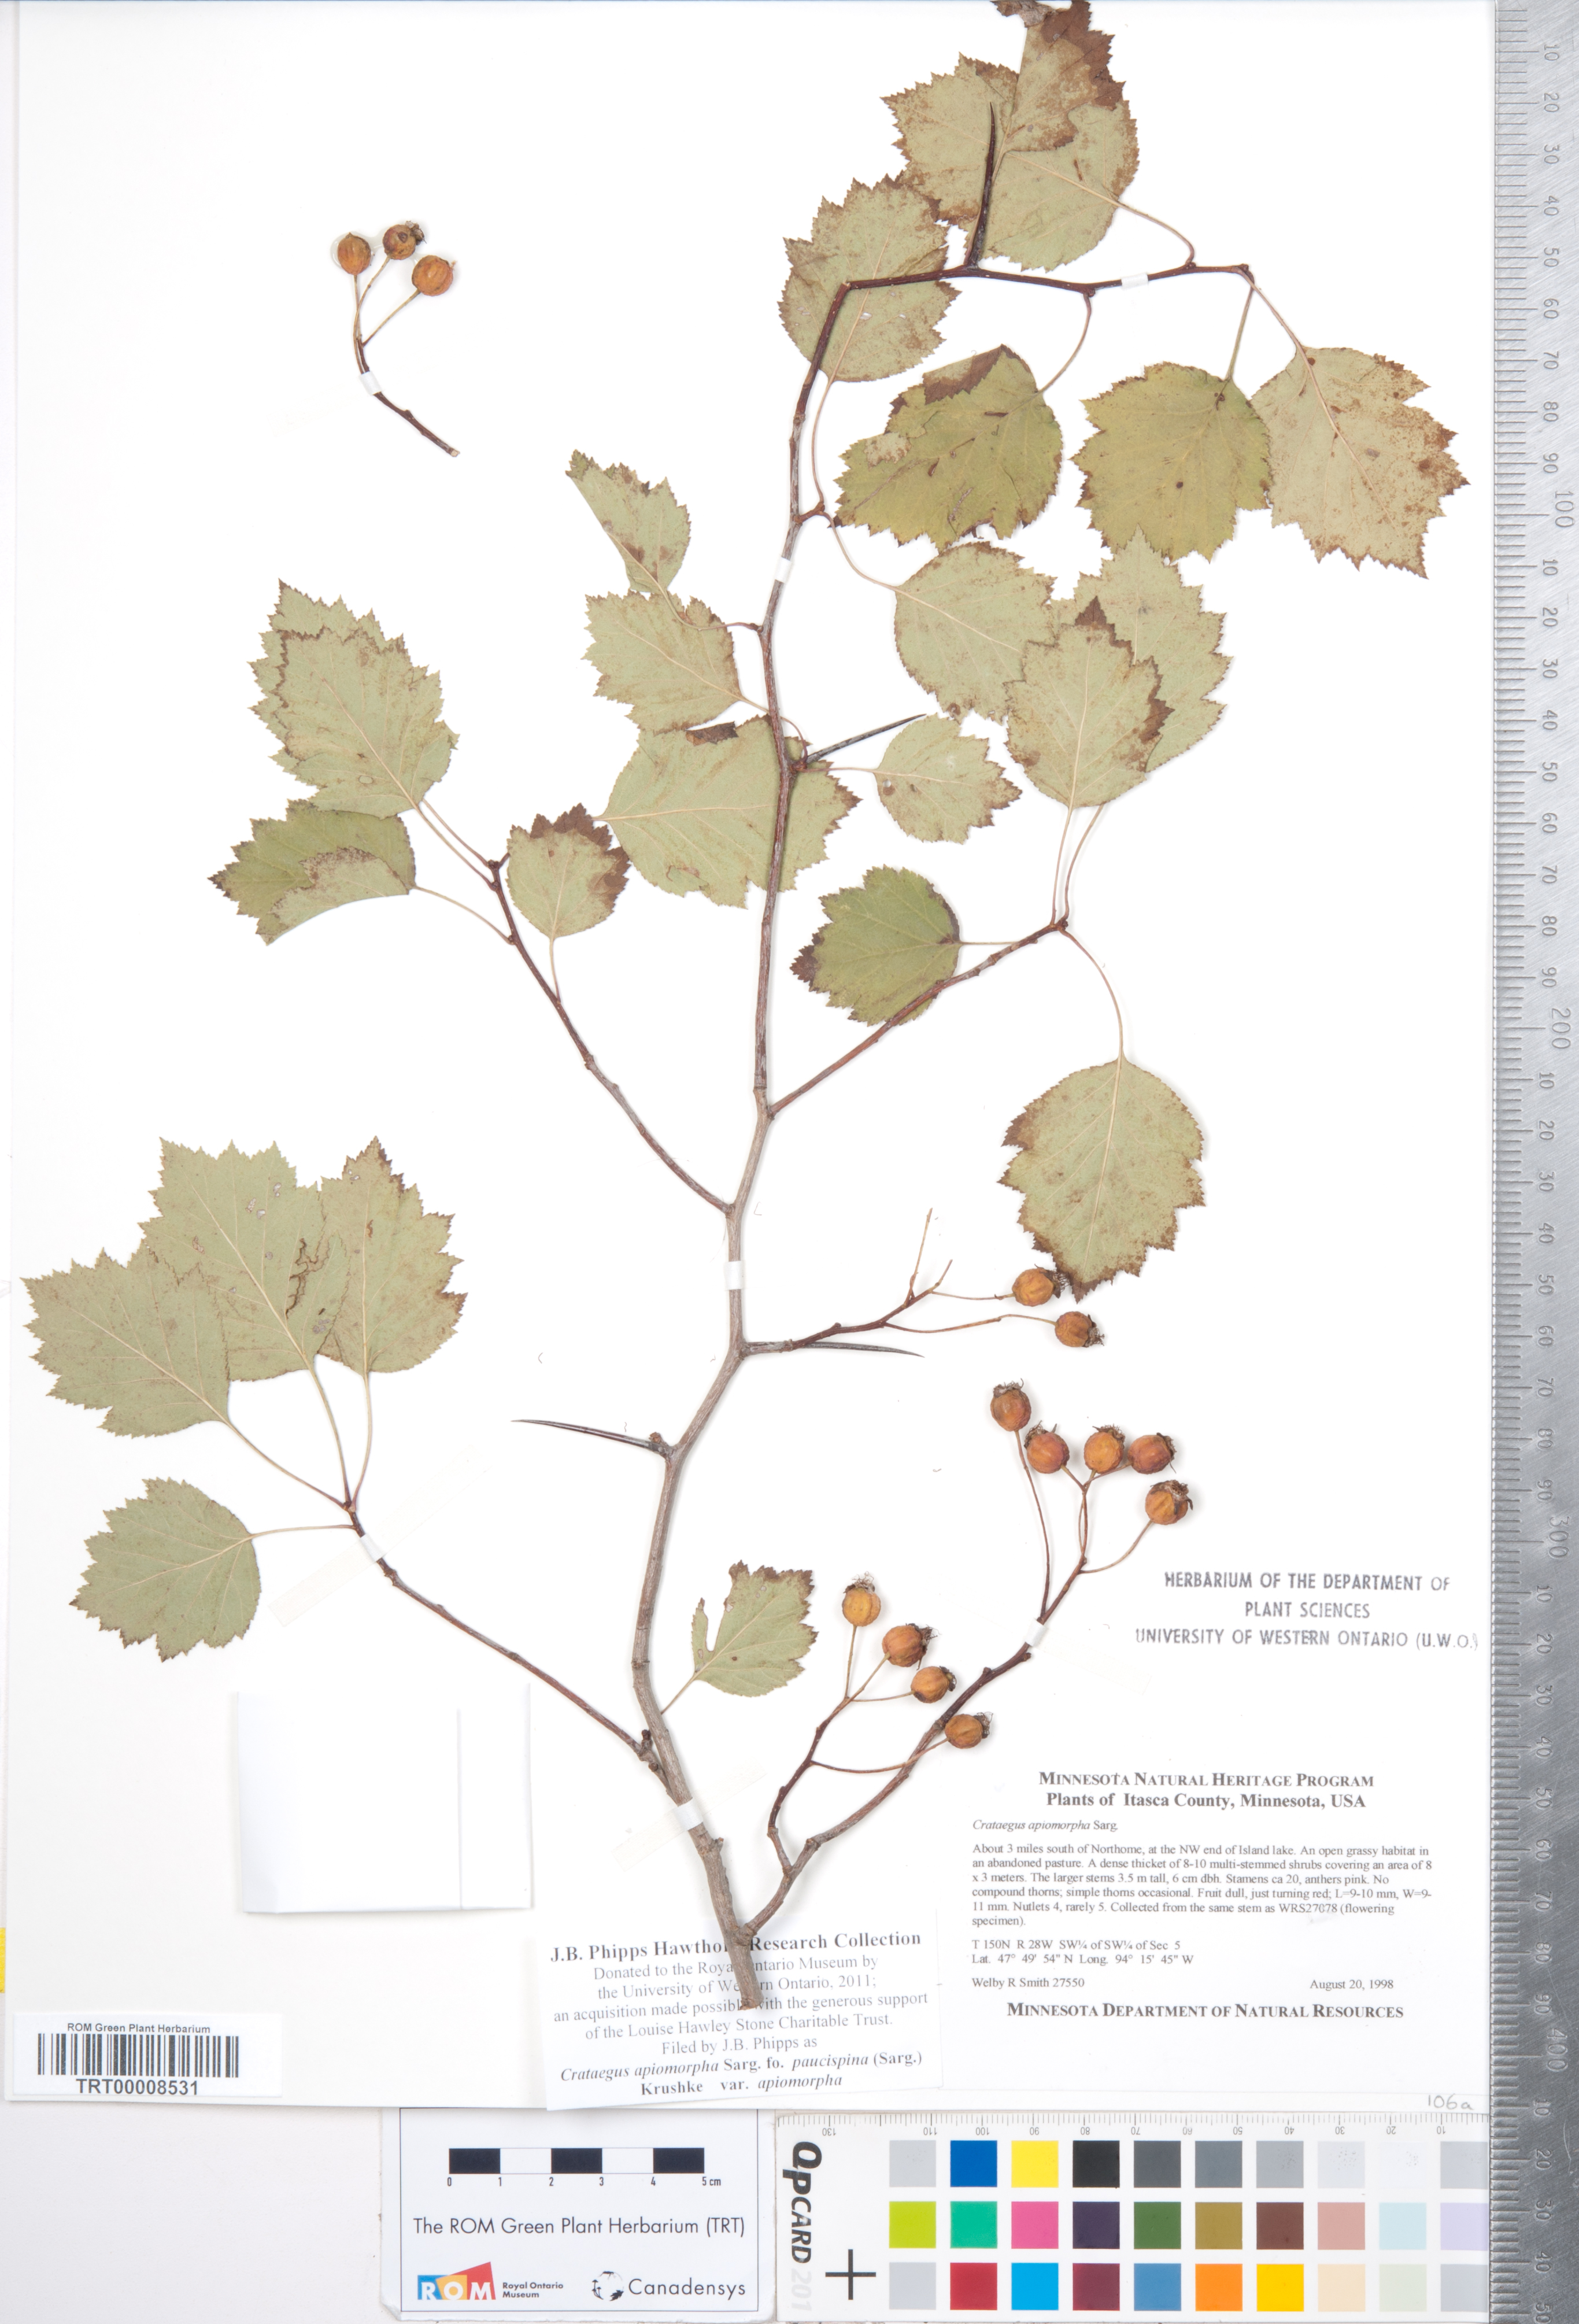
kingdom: Plantae
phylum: Tracheophyta
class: Magnoliopsida
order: Rosales
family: Rosaceae
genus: Crataegus
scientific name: Crataegus fluviatilis
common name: Fort sheridan hawthorn
